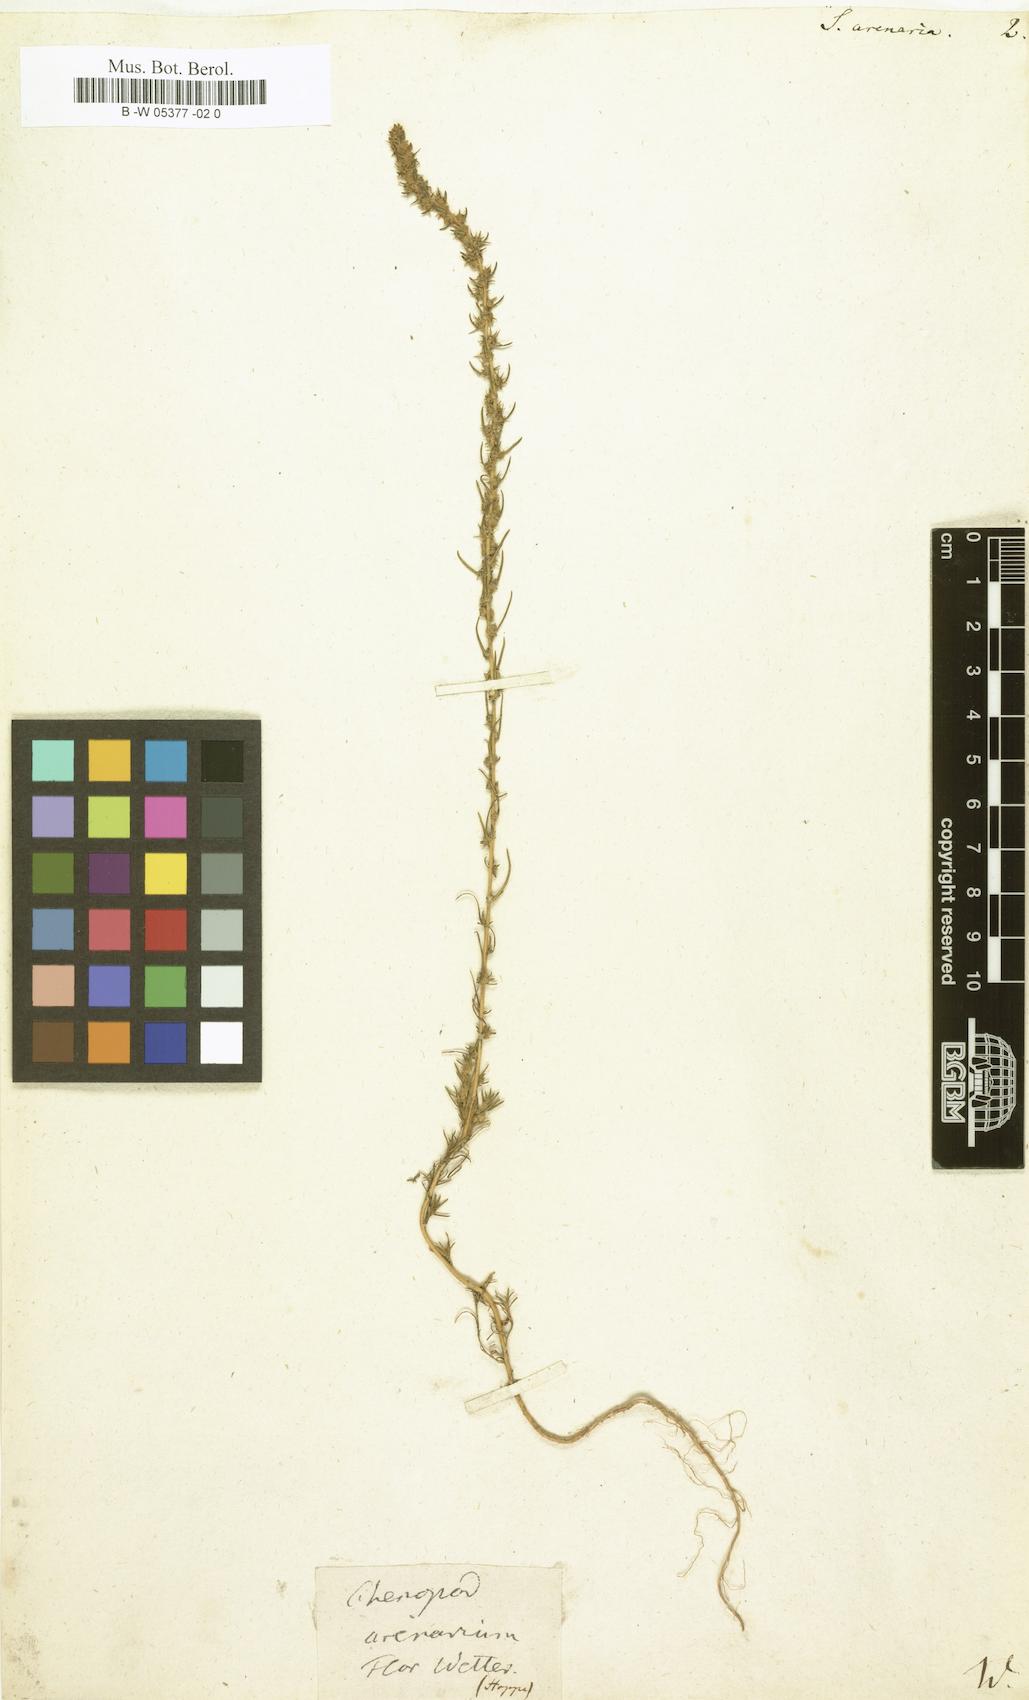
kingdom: Plantae
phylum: Tracheophyta
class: Magnoliopsida
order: Caryophyllales
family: Amaranthaceae
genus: Bassia
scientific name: Bassia laniflora
